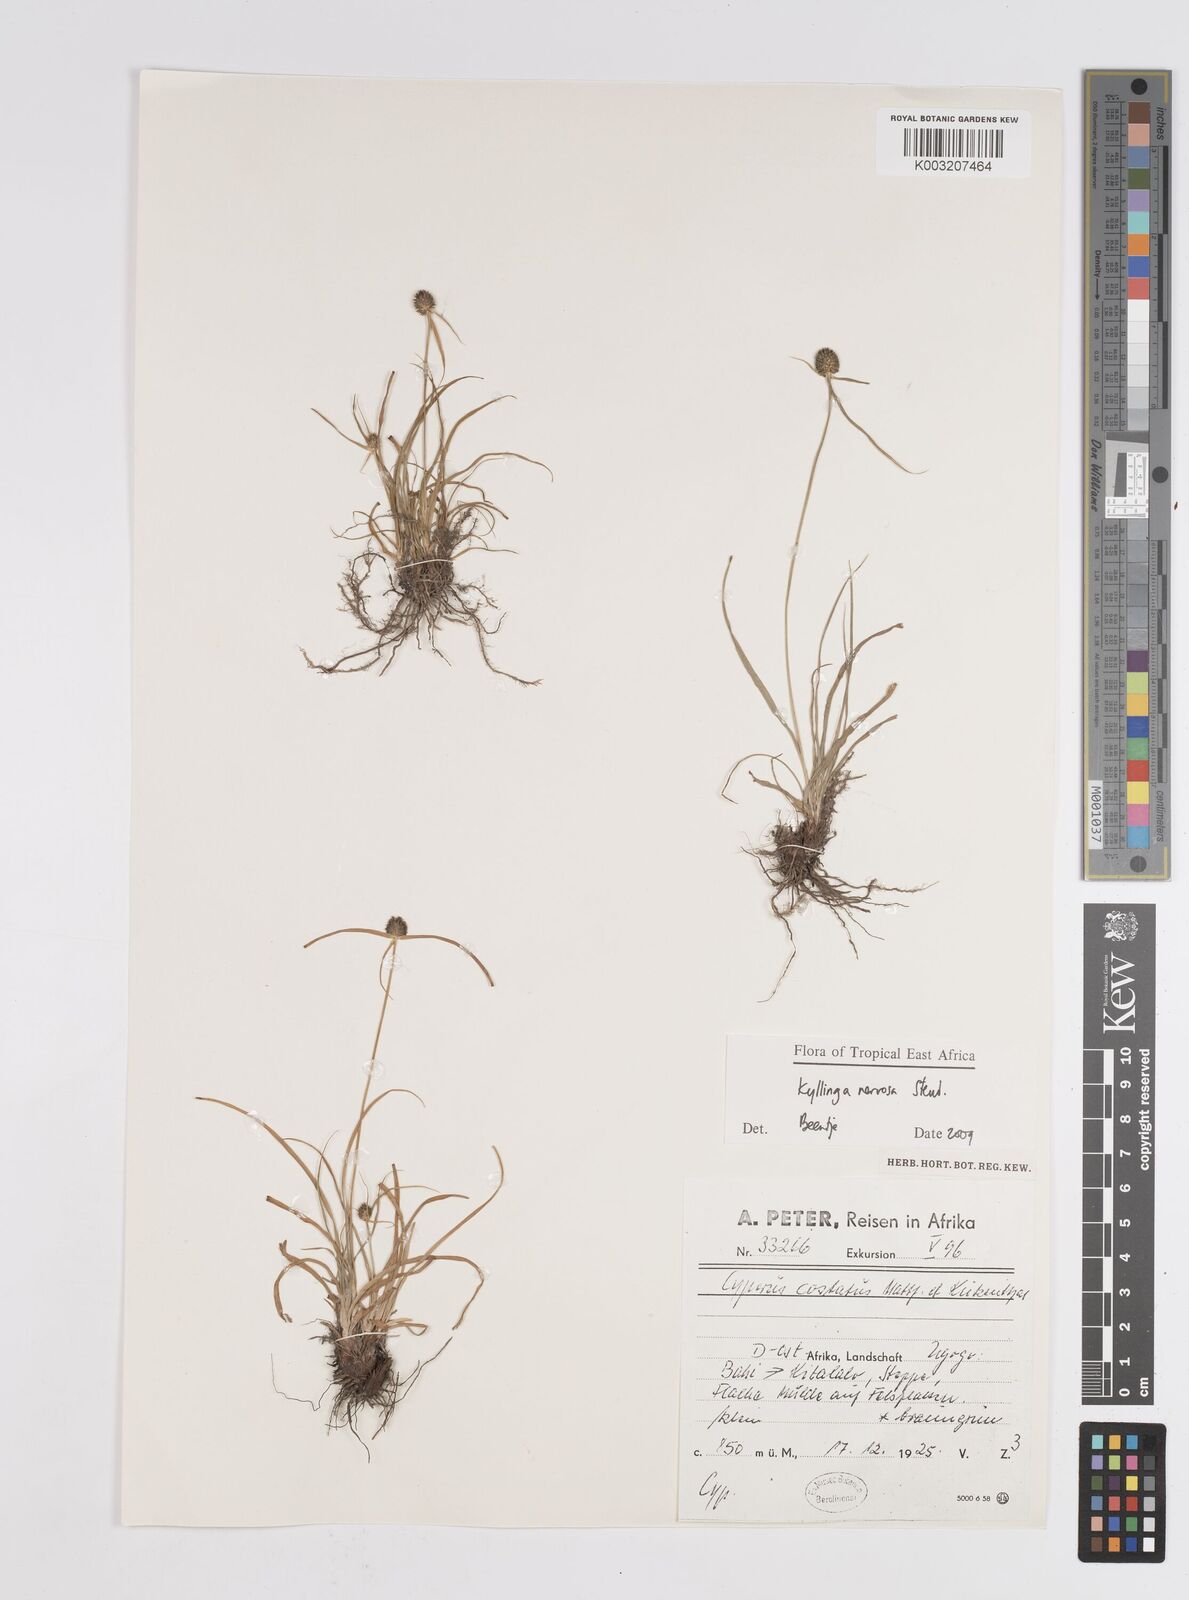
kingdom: Plantae
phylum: Tracheophyta
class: Liliopsida
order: Poales
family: Cyperaceae
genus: Cyperus
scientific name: Cyperus
